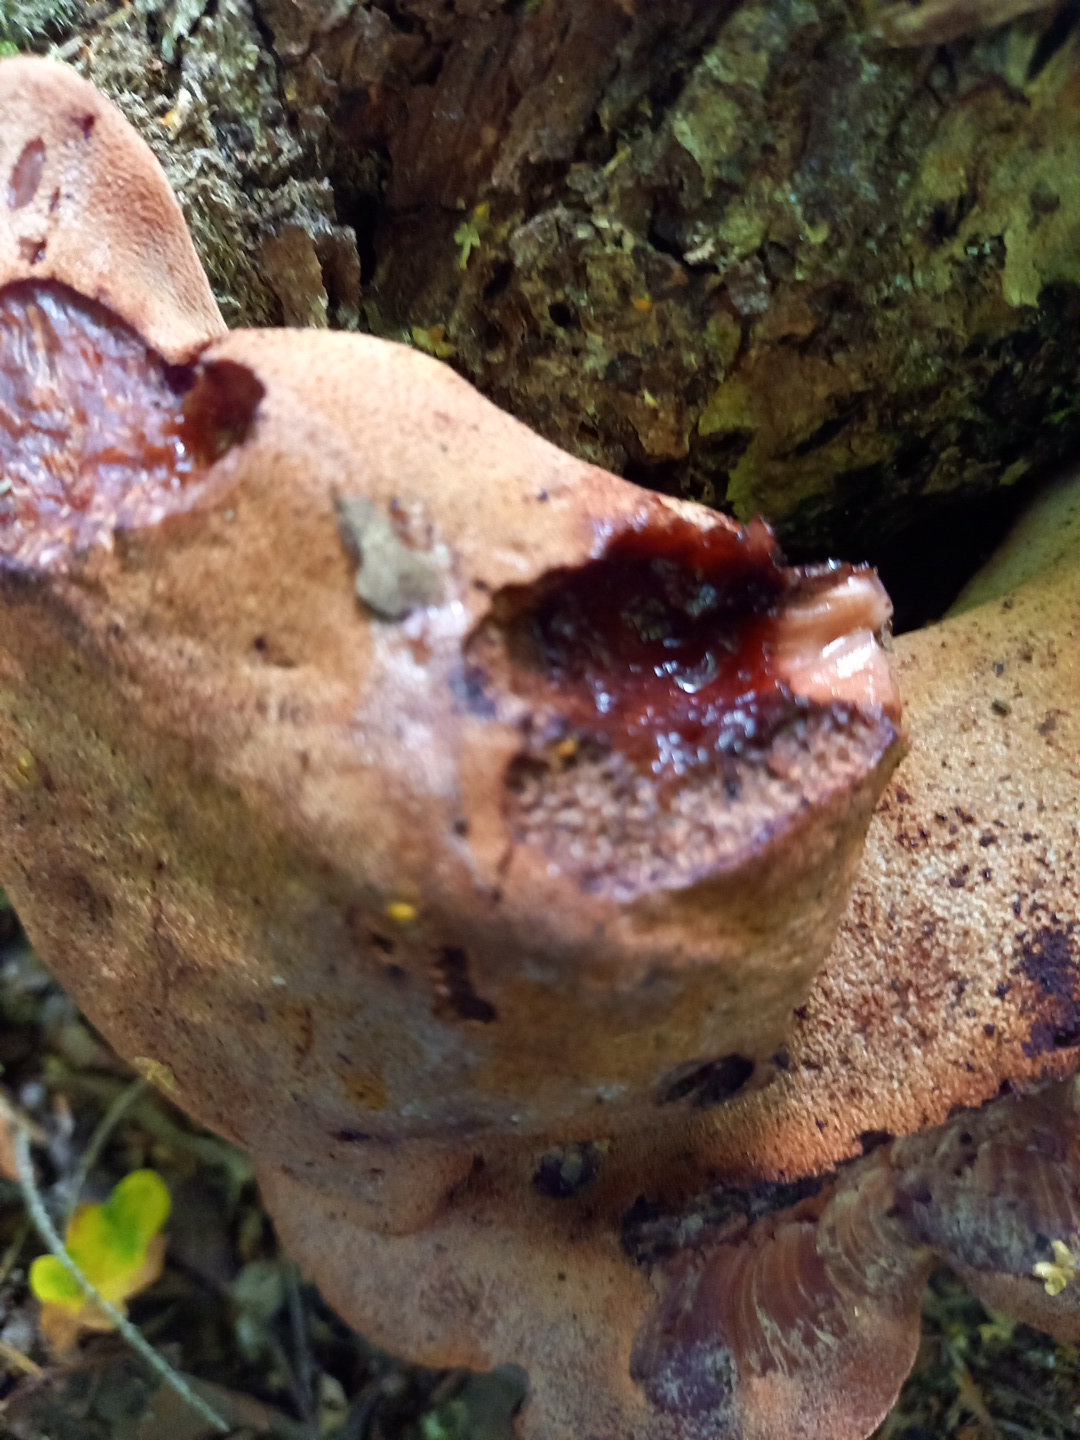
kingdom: Fungi
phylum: Basidiomycota
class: Agaricomycetes
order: Agaricales
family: Fistulinaceae
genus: Fistulina
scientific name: Fistulina hepatica
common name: oksetunge
